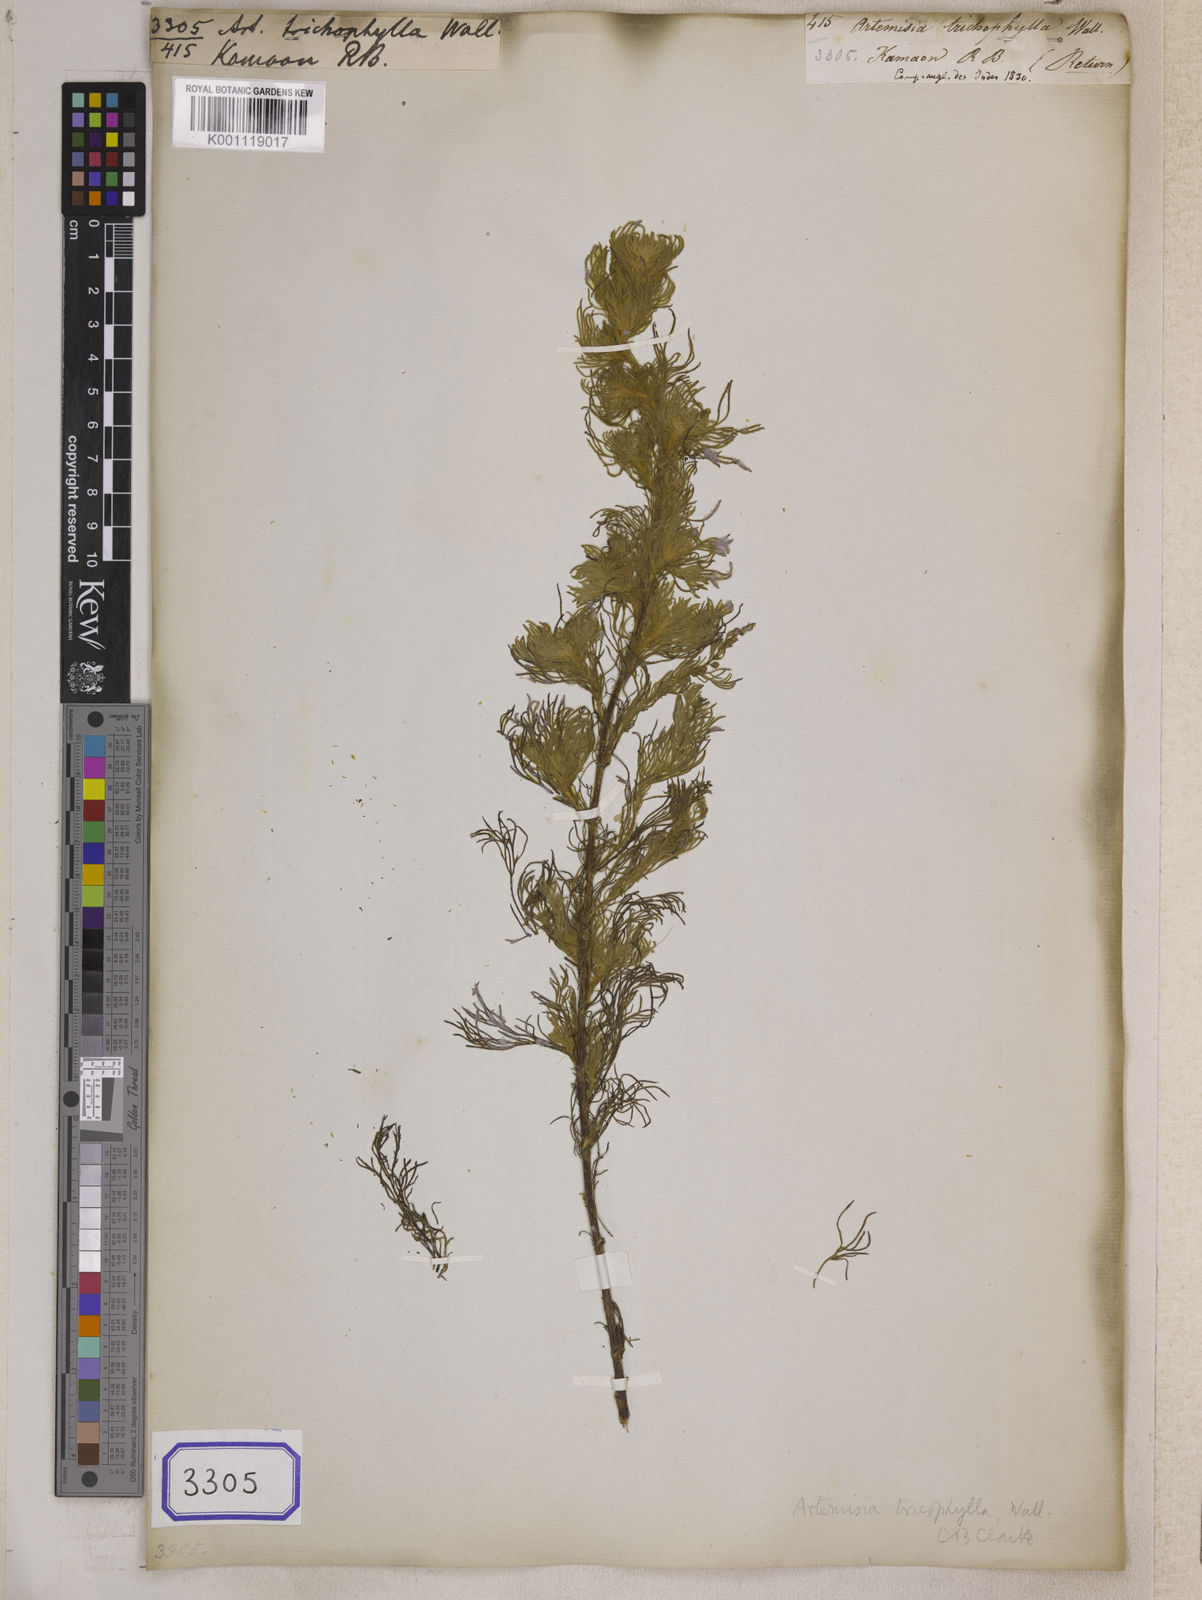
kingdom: Plantae
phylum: Tracheophyta
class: Magnoliopsida
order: Asterales
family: Asteraceae
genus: Artemisia
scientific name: Artemisia
